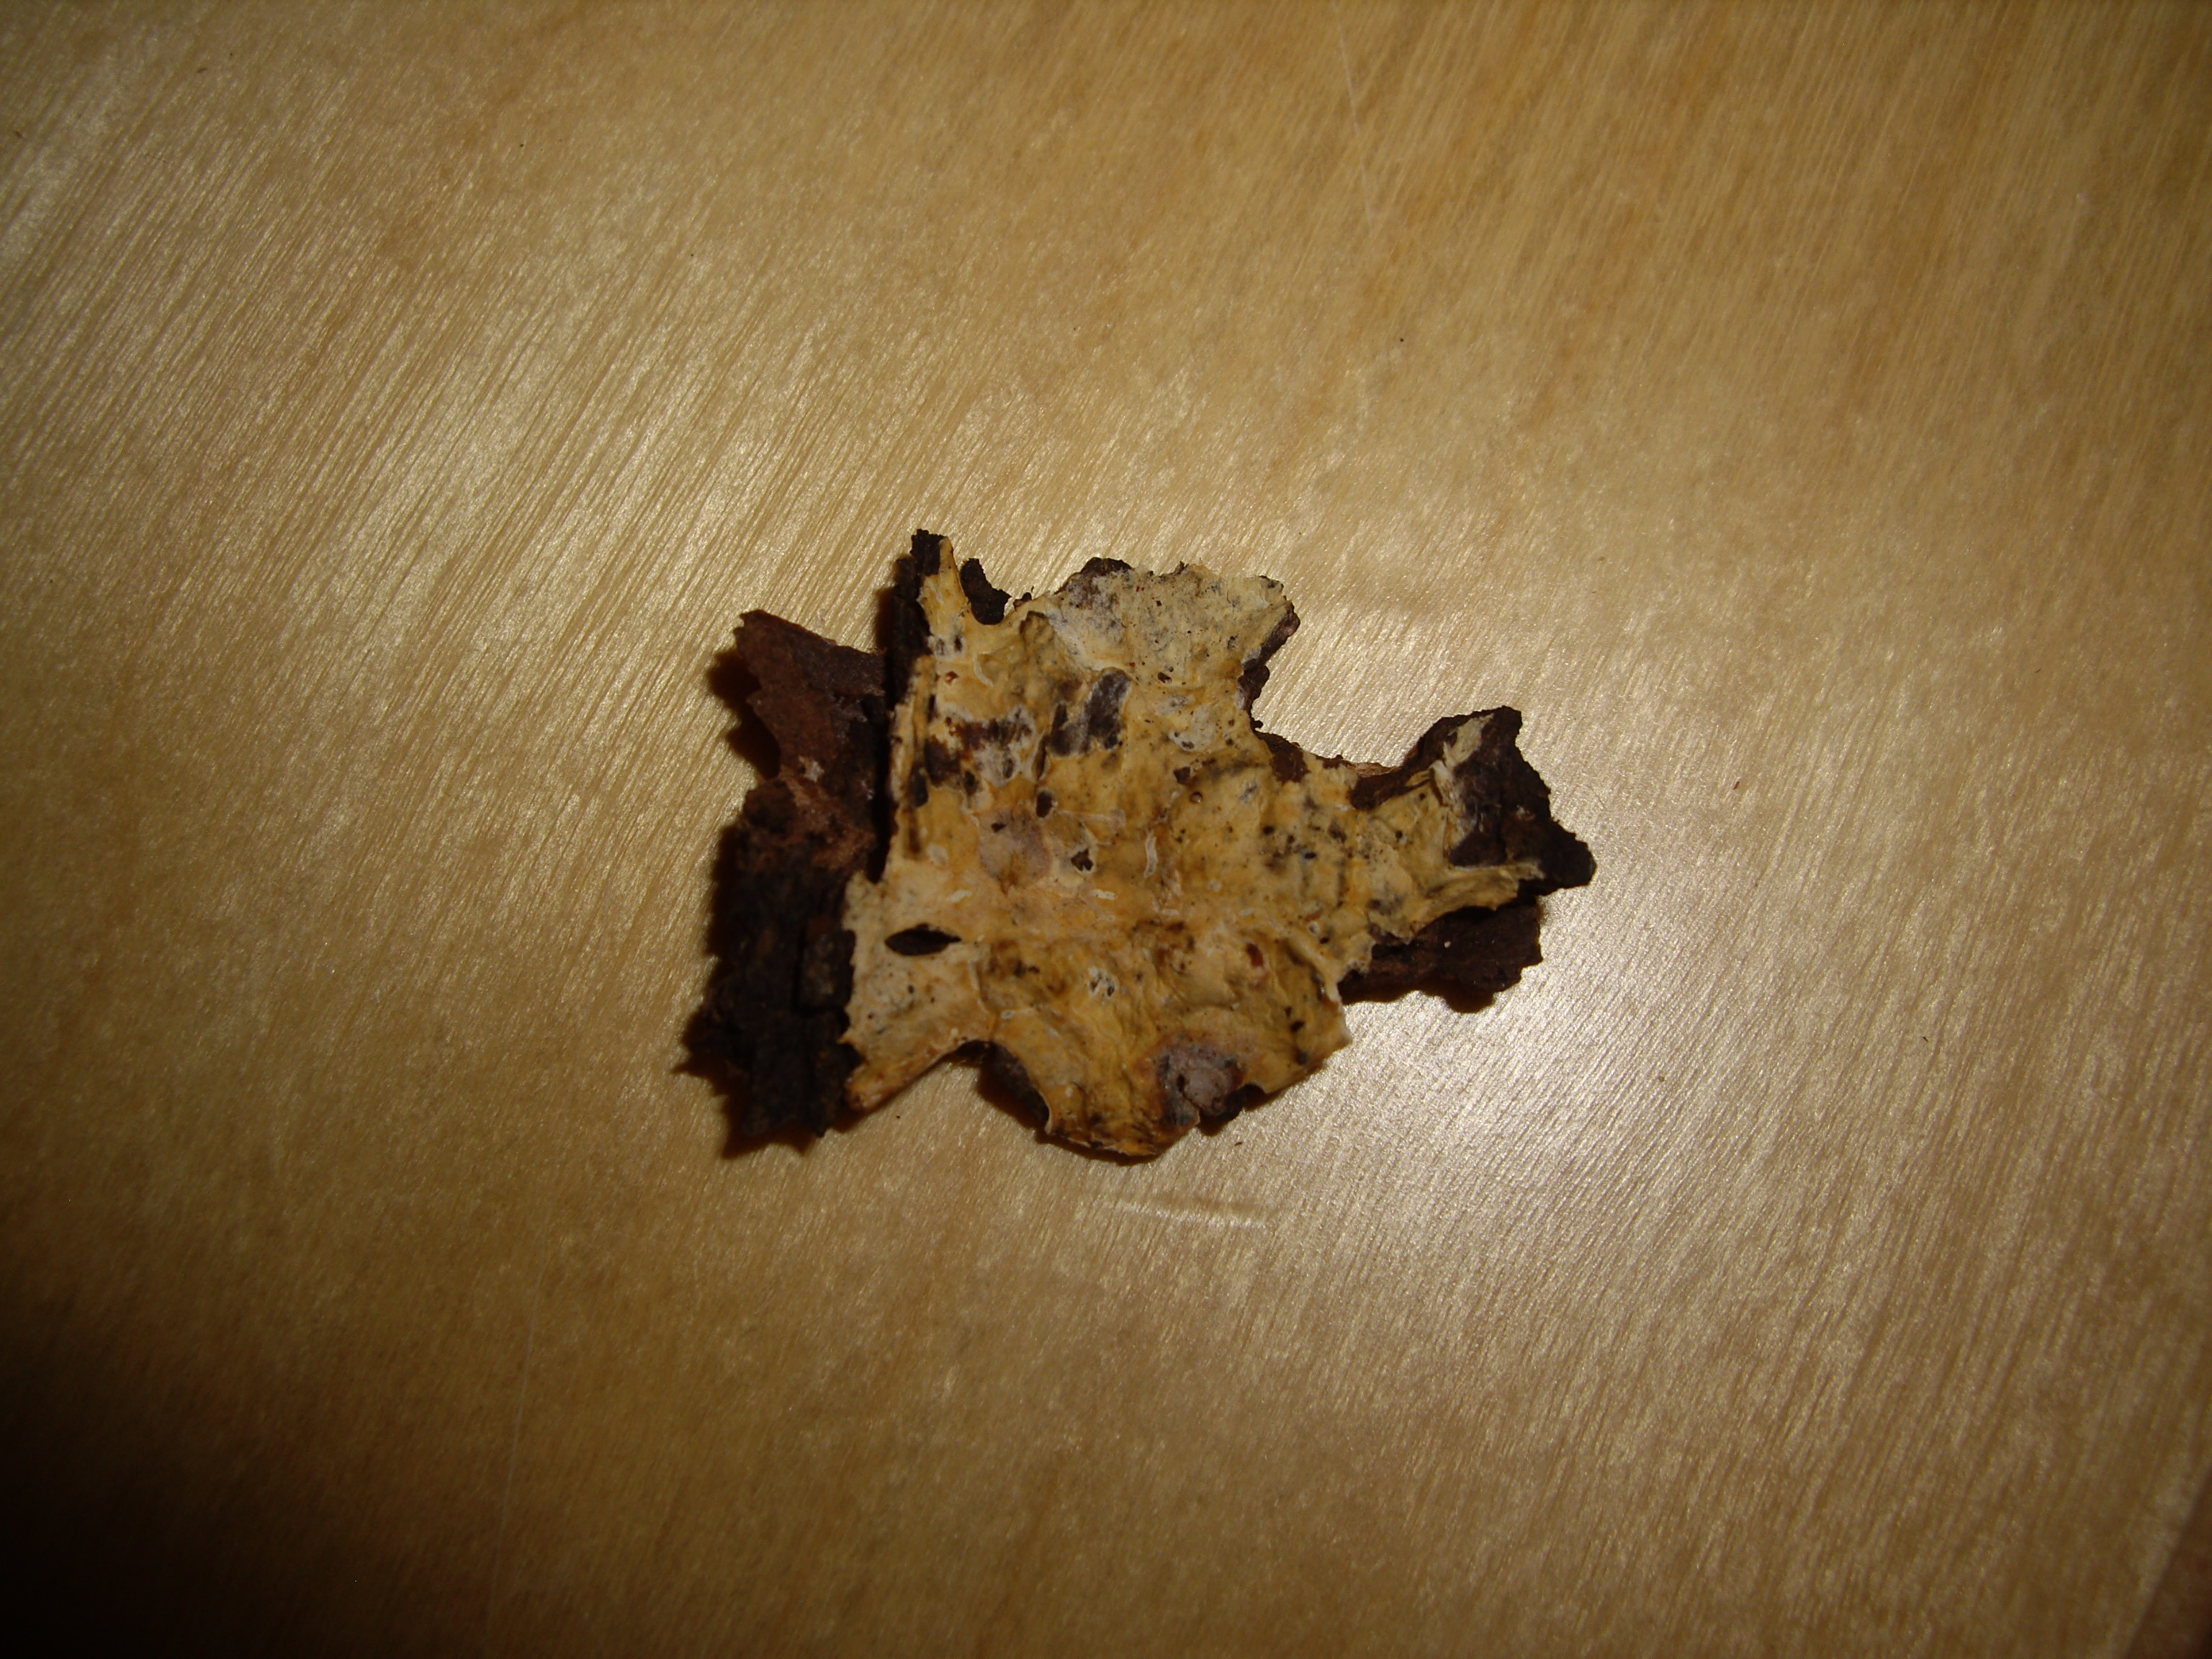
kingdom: Fungi
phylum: Basidiomycota
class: Agaricomycetes
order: Polyporales
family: Phanerochaetaceae
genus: Phanerochaete
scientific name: Phanerochaete
